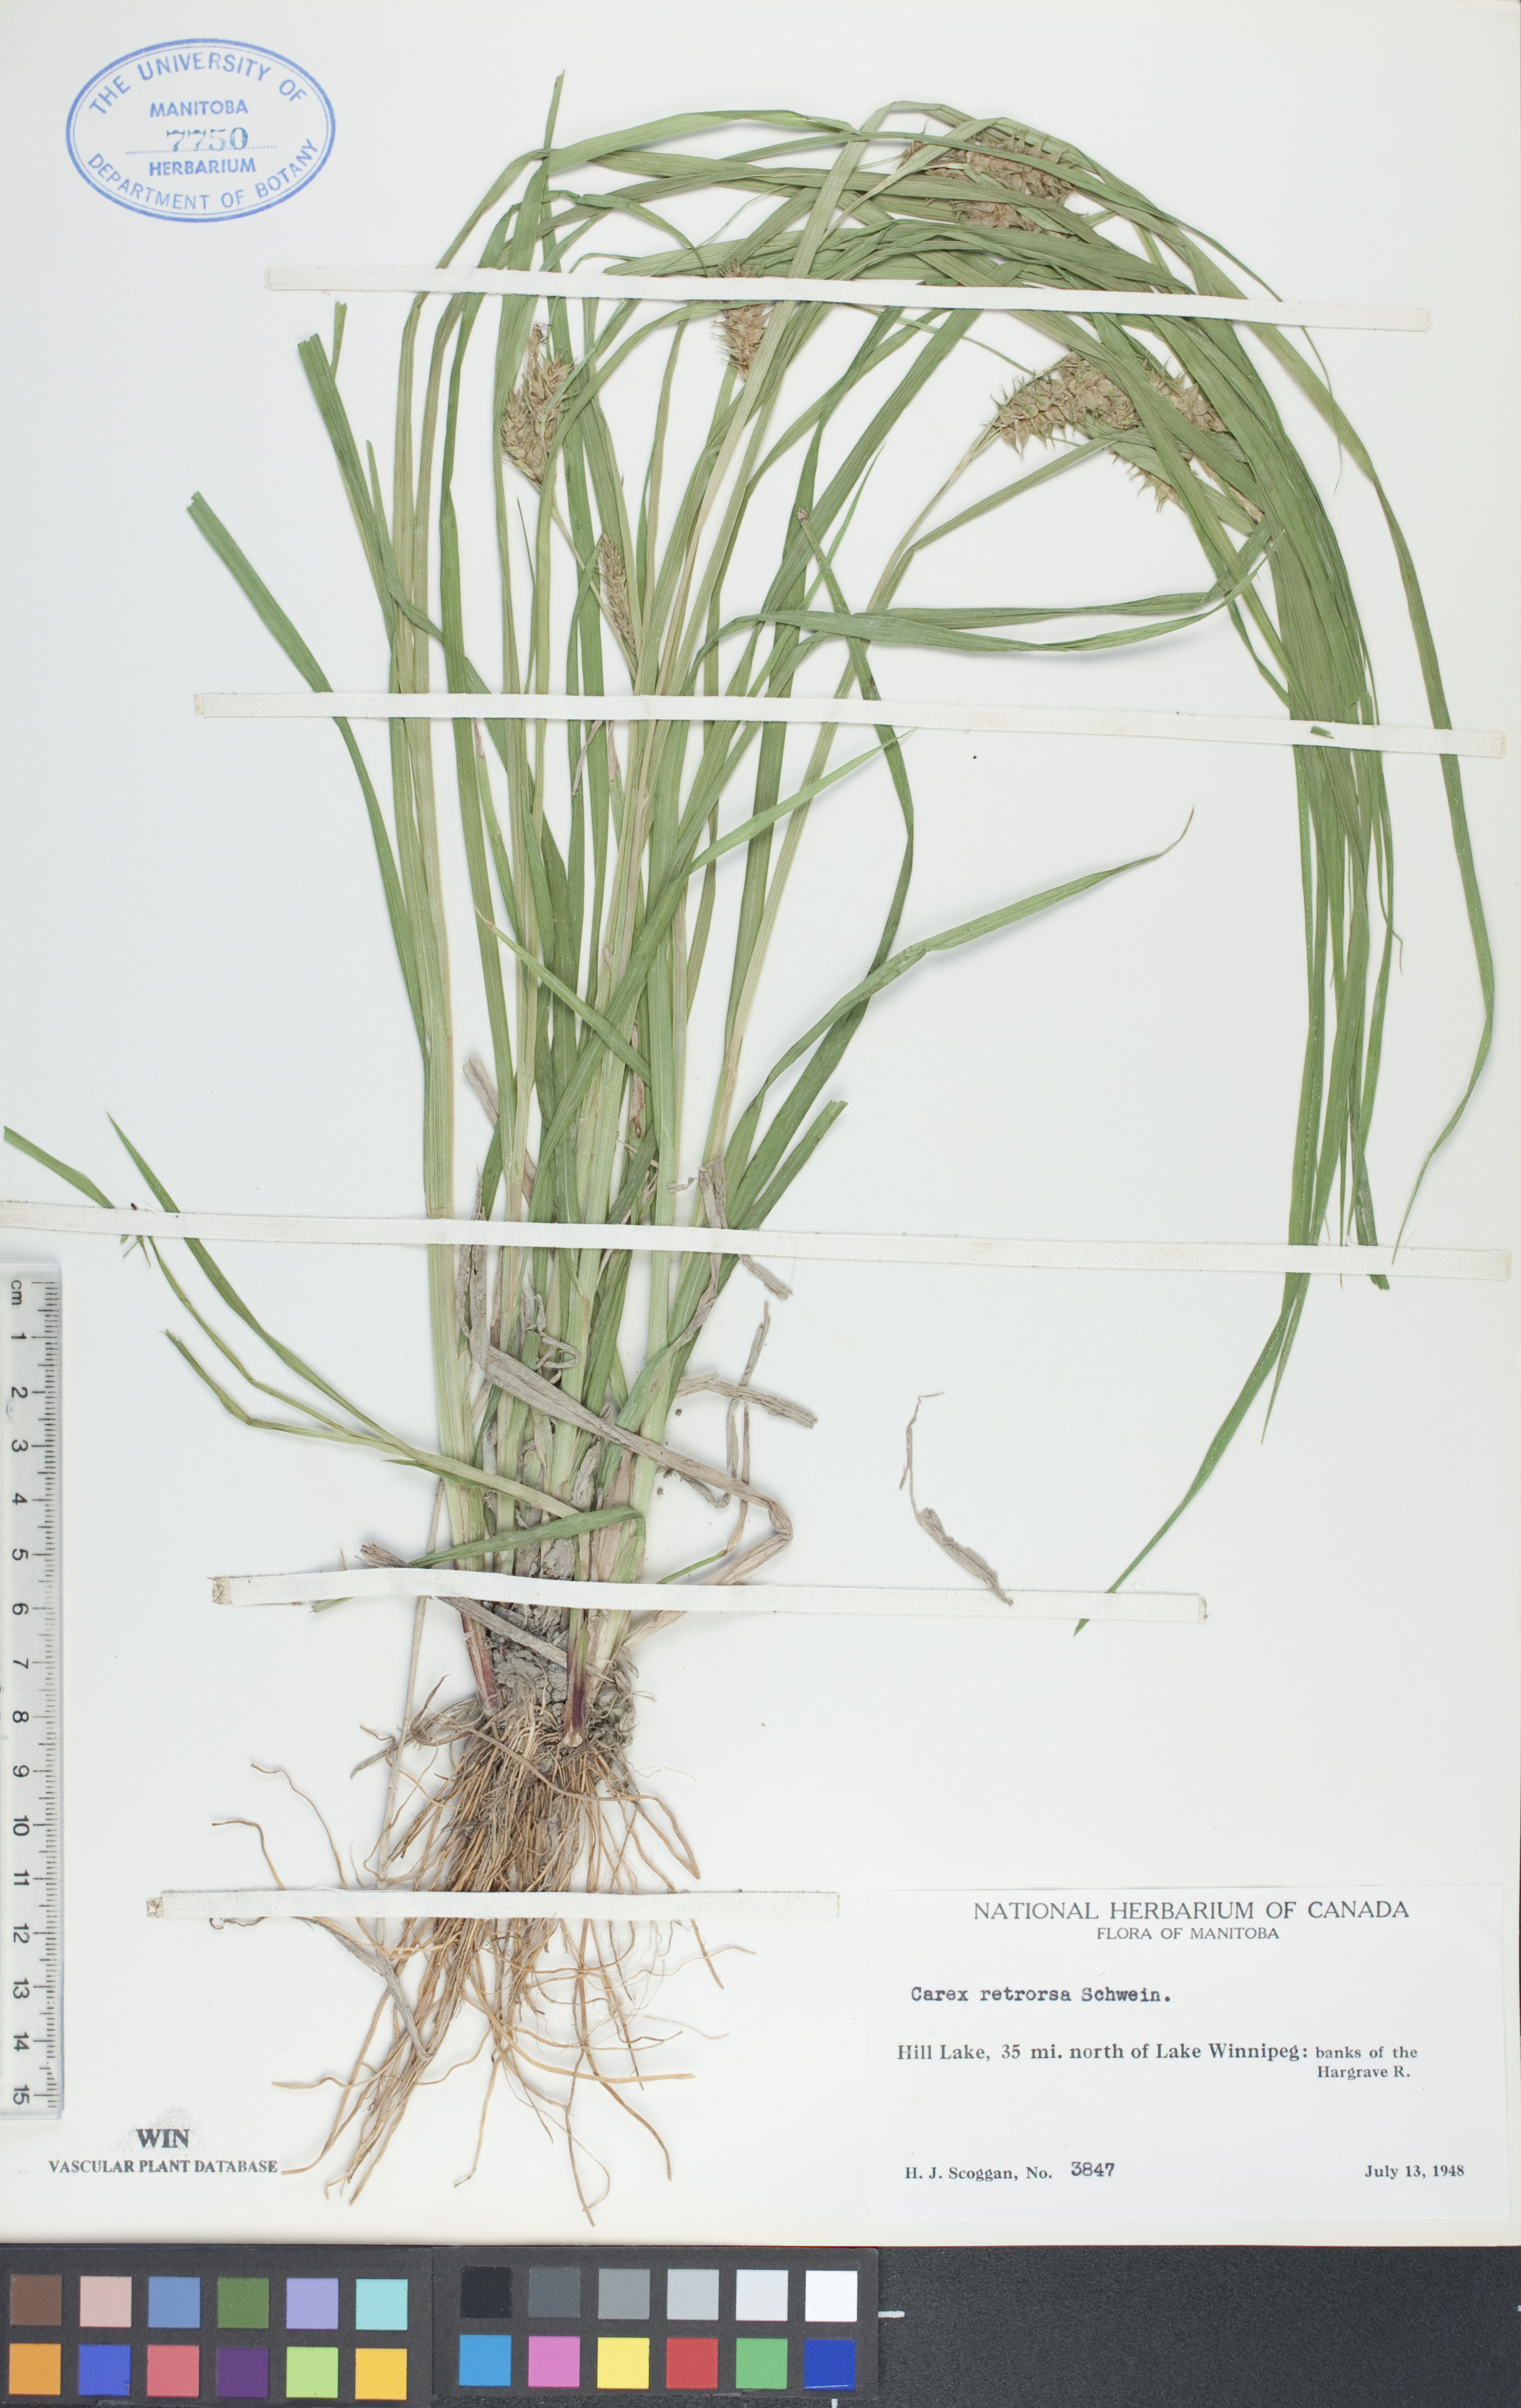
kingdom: Plantae
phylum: Tracheophyta
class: Liliopsida
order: Poales
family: Cyperaceae
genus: Carex
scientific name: Carex retrorsa
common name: Knot-sheath sedge
